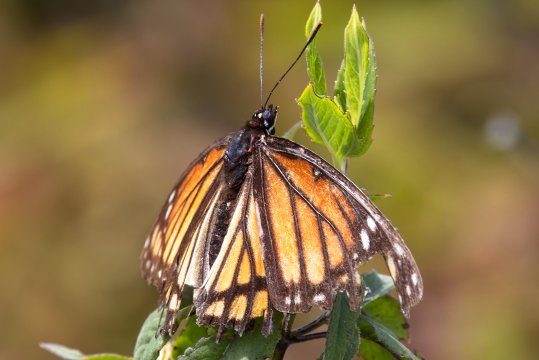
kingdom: Animalia
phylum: Arthropoda
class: Insecta
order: Lepidoptera
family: Nymphalidae
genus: Limenitis
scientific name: Limenitis archippus
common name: Viceroy
